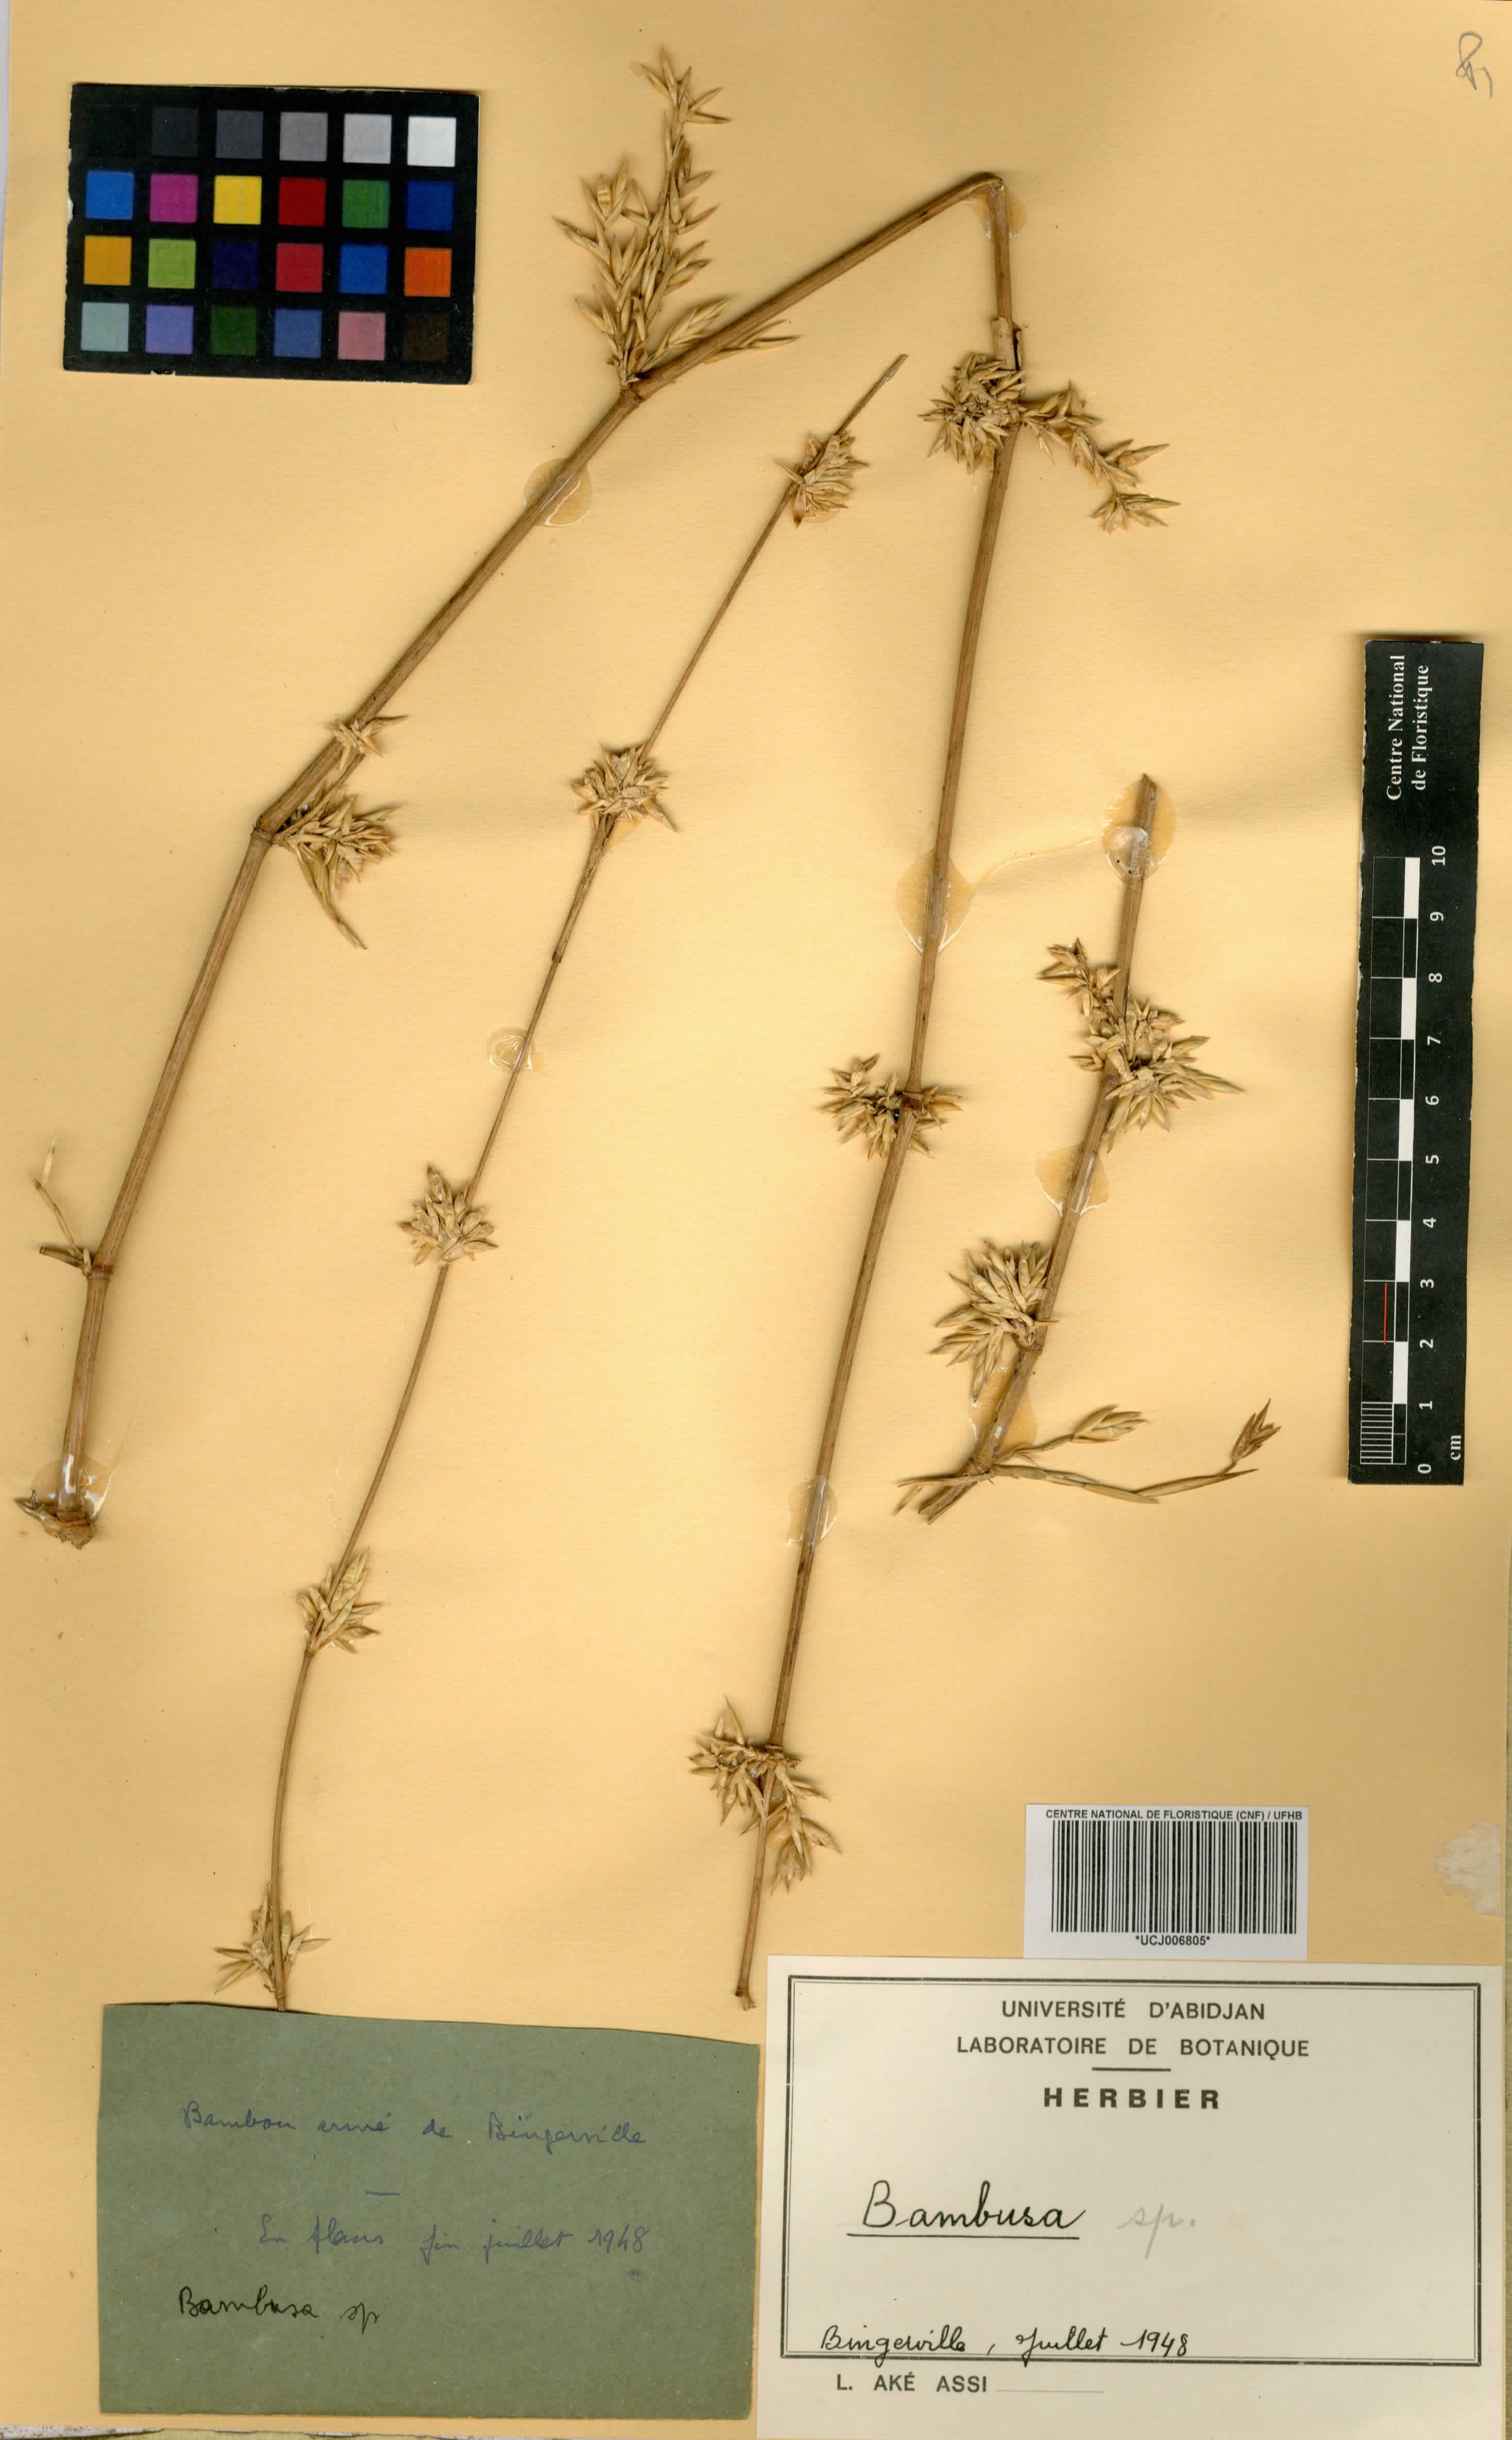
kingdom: Plantae
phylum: Tracheophyta
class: Liliopsida
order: Poales
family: Poaceae
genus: Bambusa
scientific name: Bambusa
